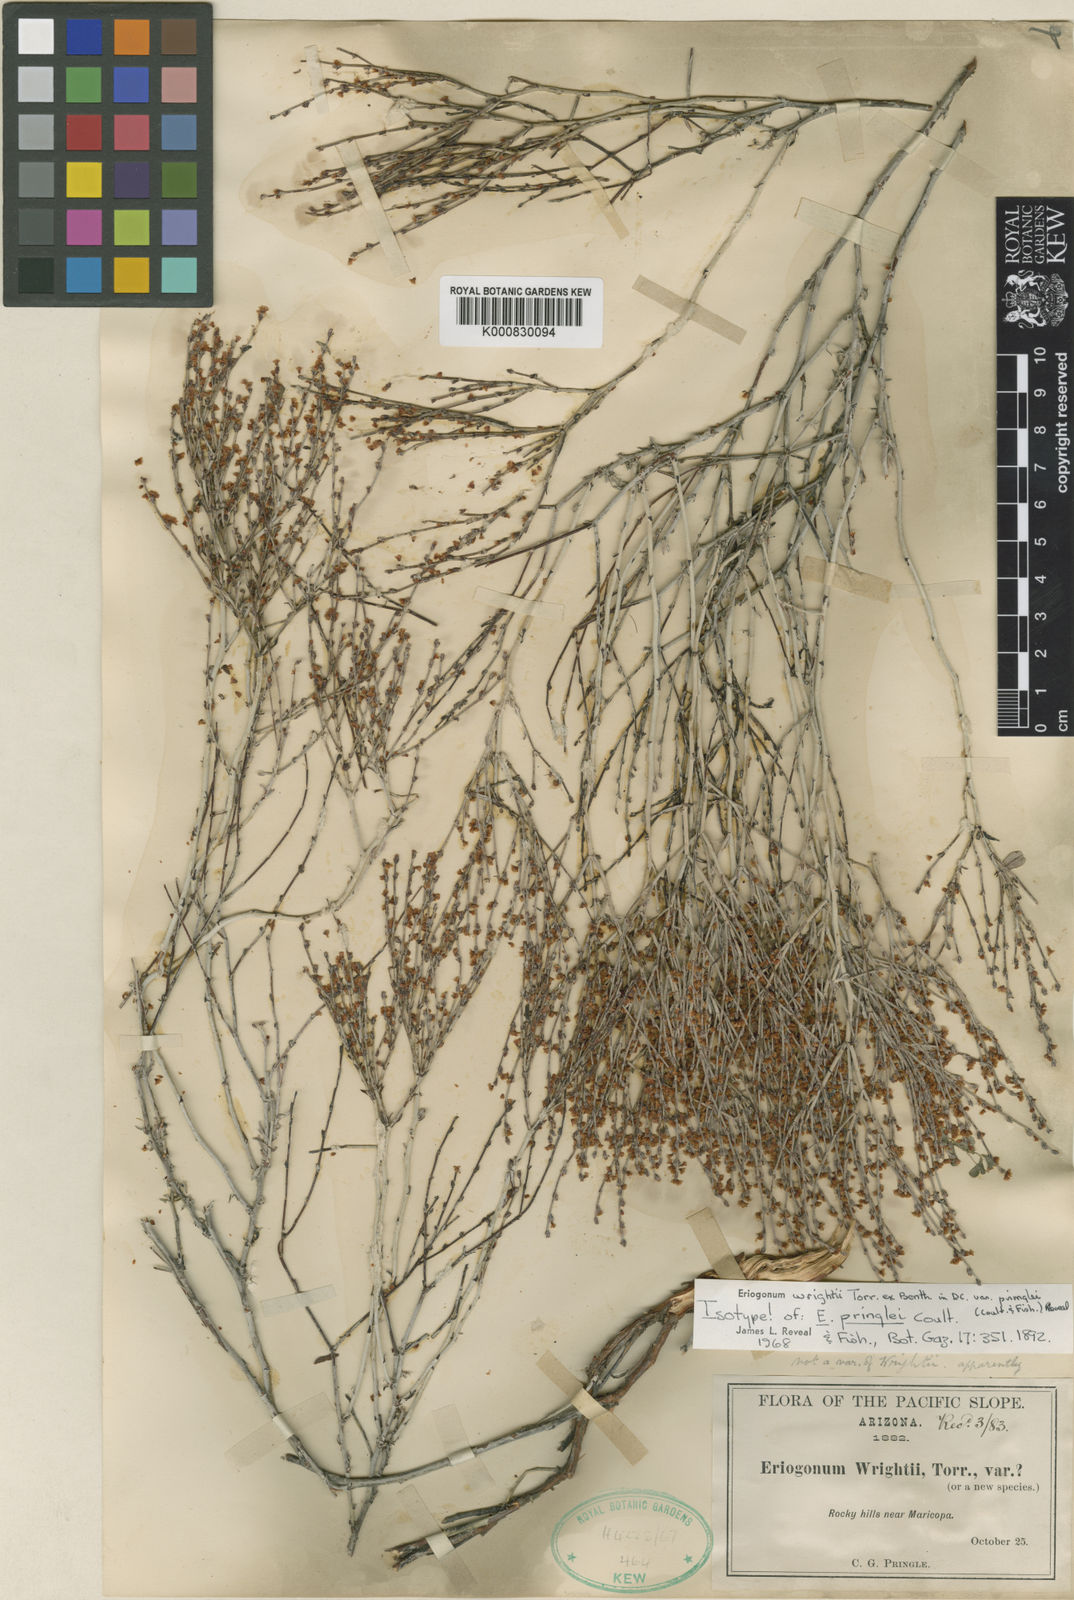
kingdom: Plantae
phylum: Tracheophyta
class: Magnoliopsida
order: Caryophyllales
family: Polygonaceae
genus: Eriogonum
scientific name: Eriogonum wrightii
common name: Bastard-sage
